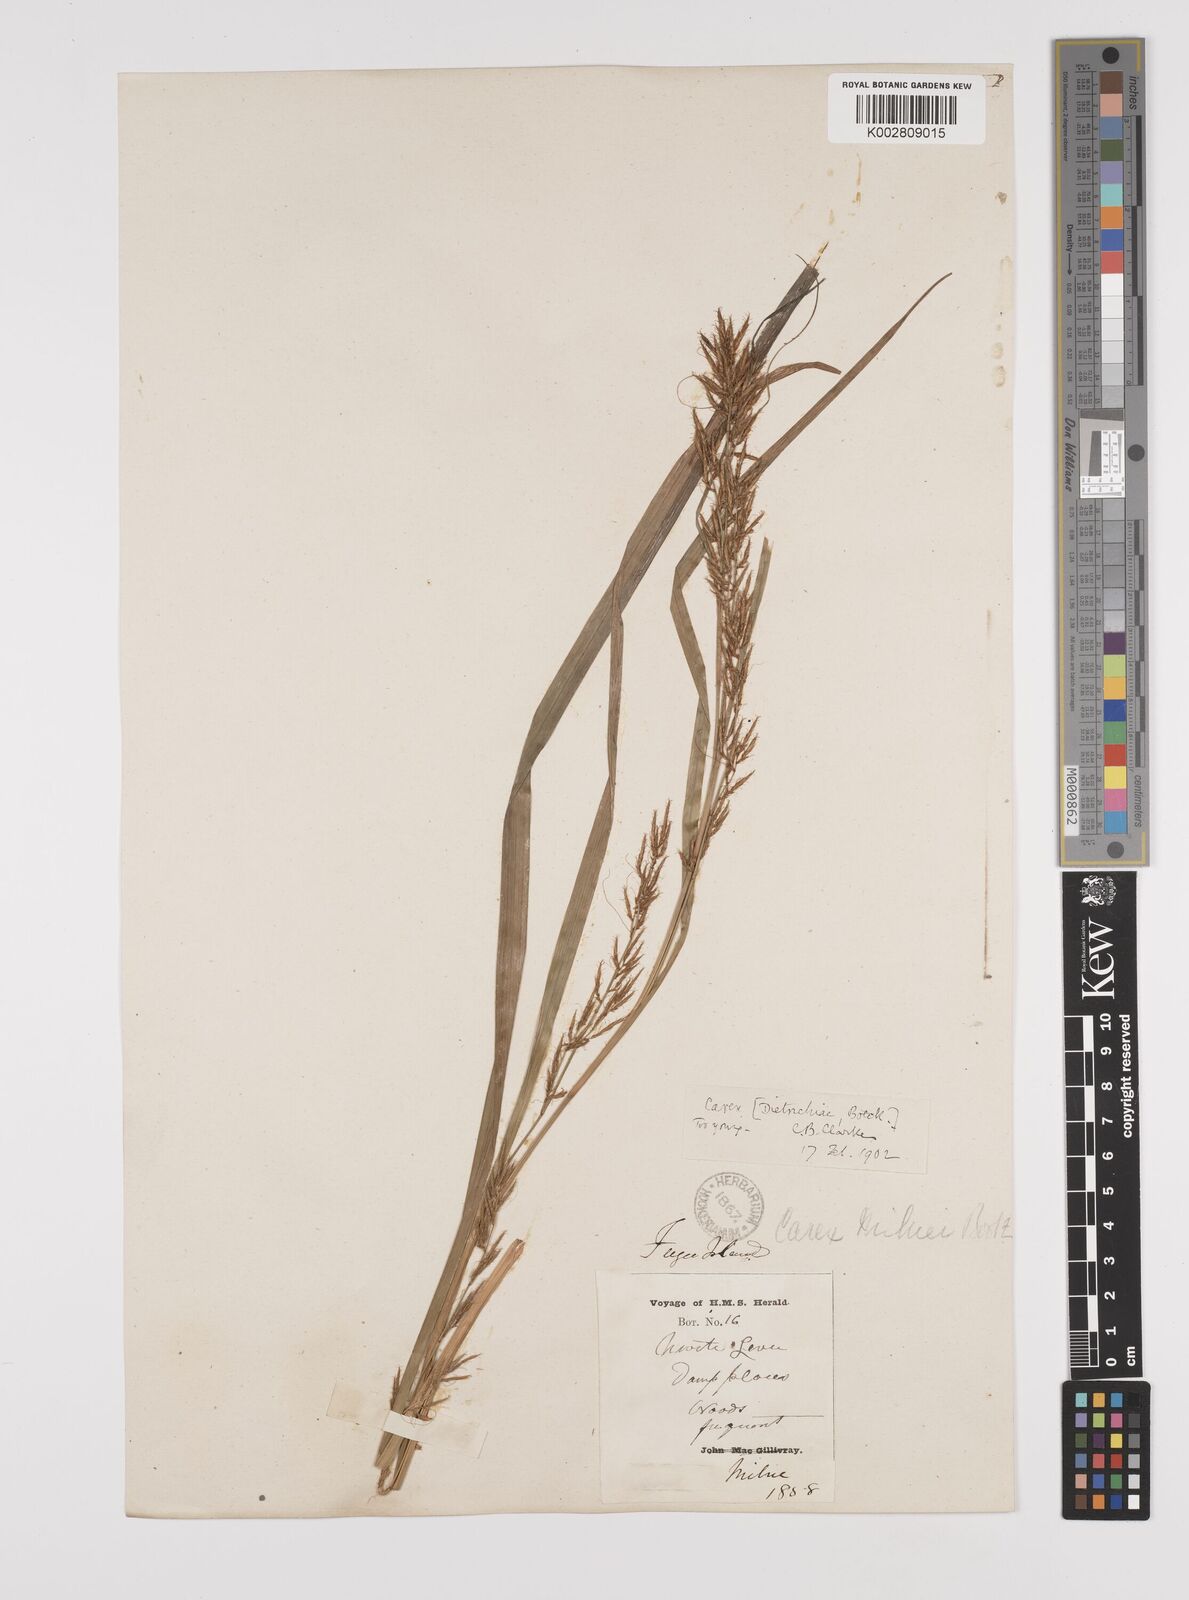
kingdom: Plantae
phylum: Tracheophyta
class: Liliopsida
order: Poales
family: Cyperaceae
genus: Carex
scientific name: Carex indica
